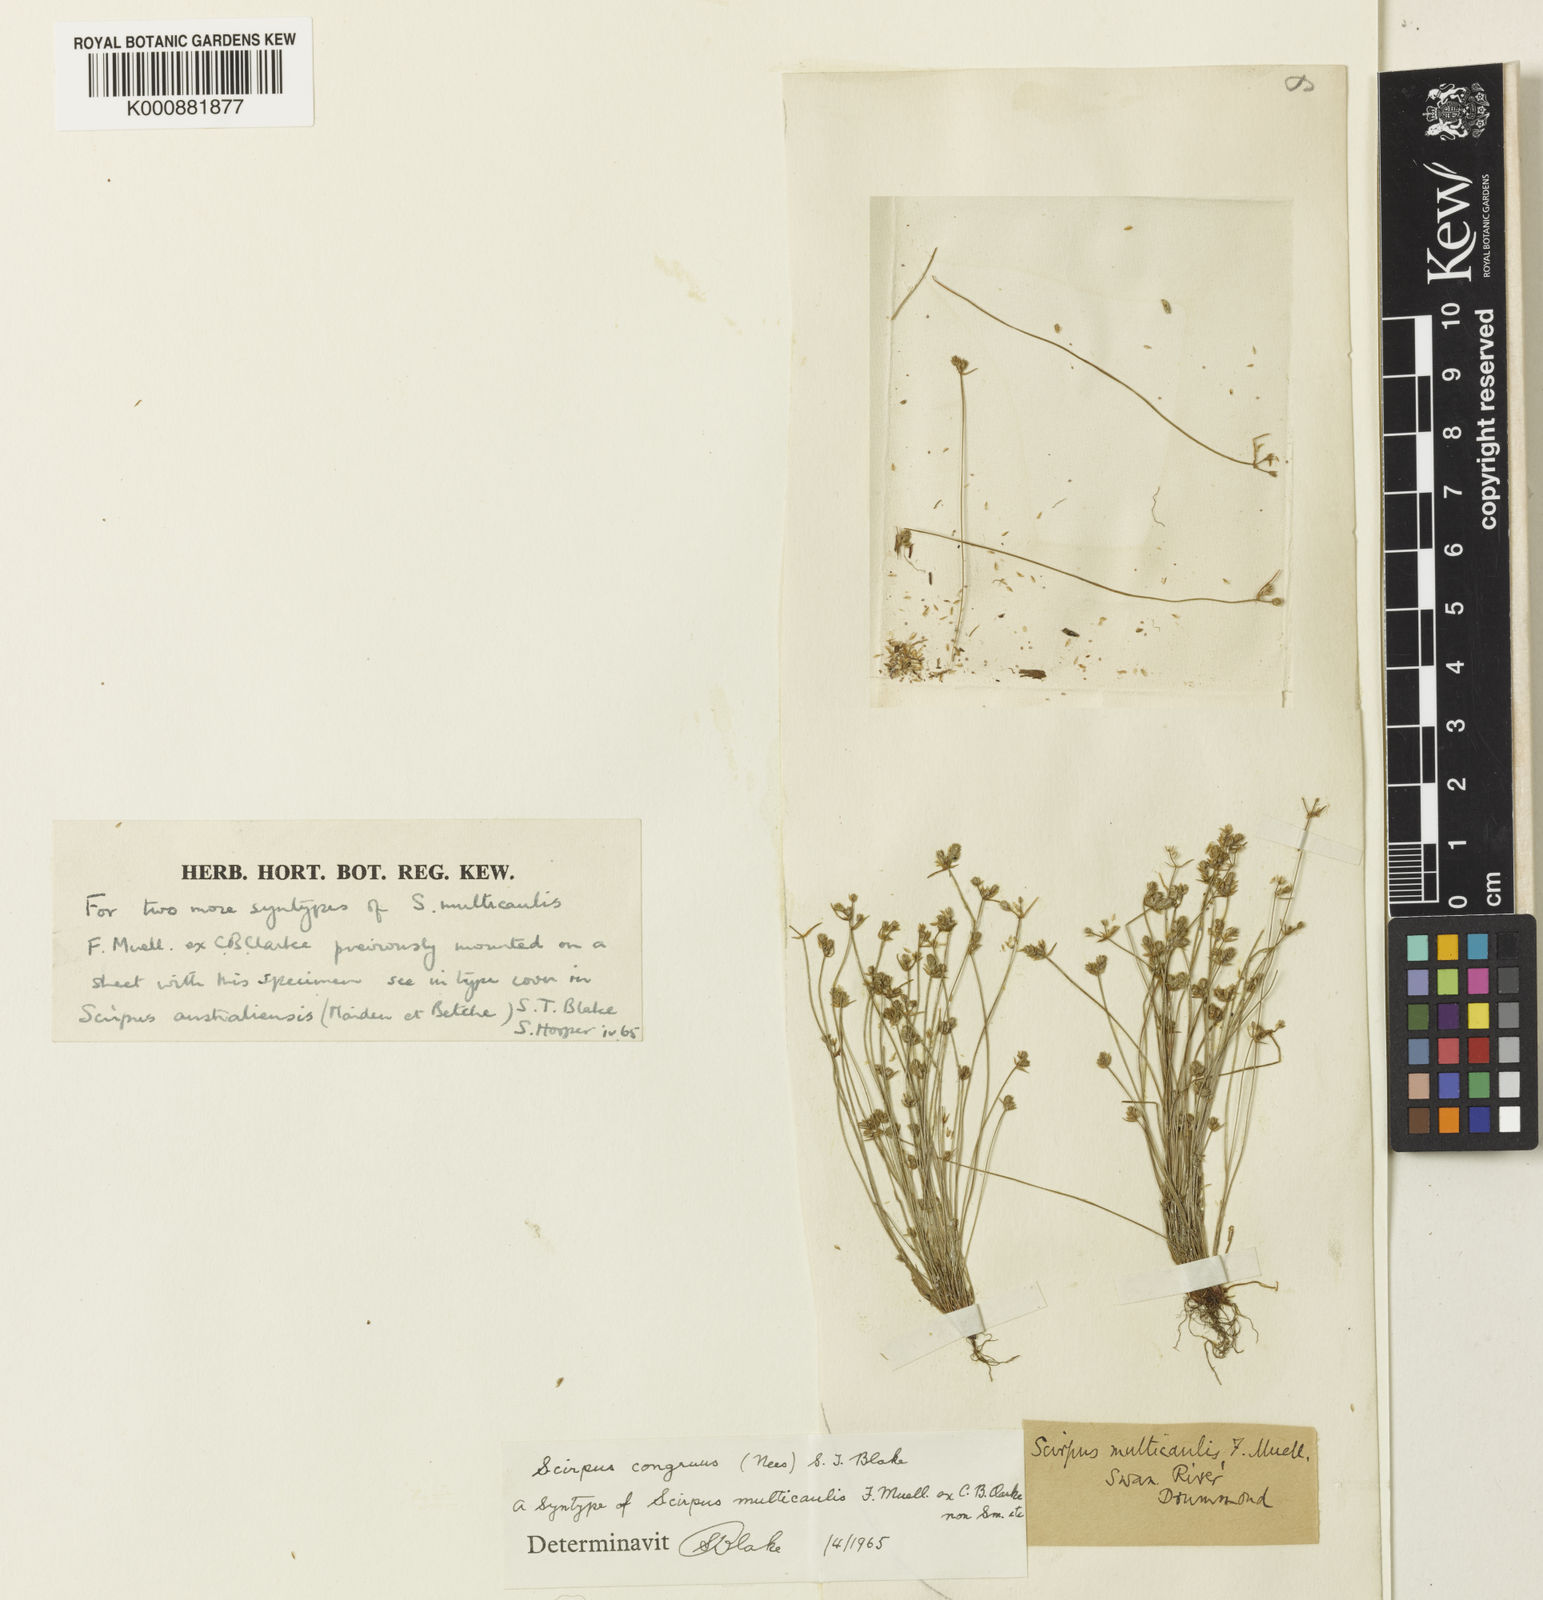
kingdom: Plantae
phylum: Tracheophyta
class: Liliopsida
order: Poales
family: Cyperaceae
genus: Isolepis
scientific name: Isolepis congrua
